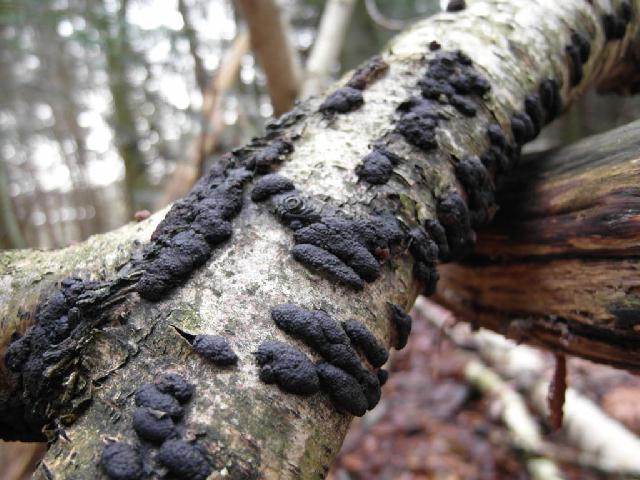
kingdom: Fungi
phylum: Ascomycota
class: Sordariomycetes
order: Xylariales
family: Hypoxylaceae
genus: Jackrogersella
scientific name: Jackrogersella multiformis
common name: foranderlig kulbær
